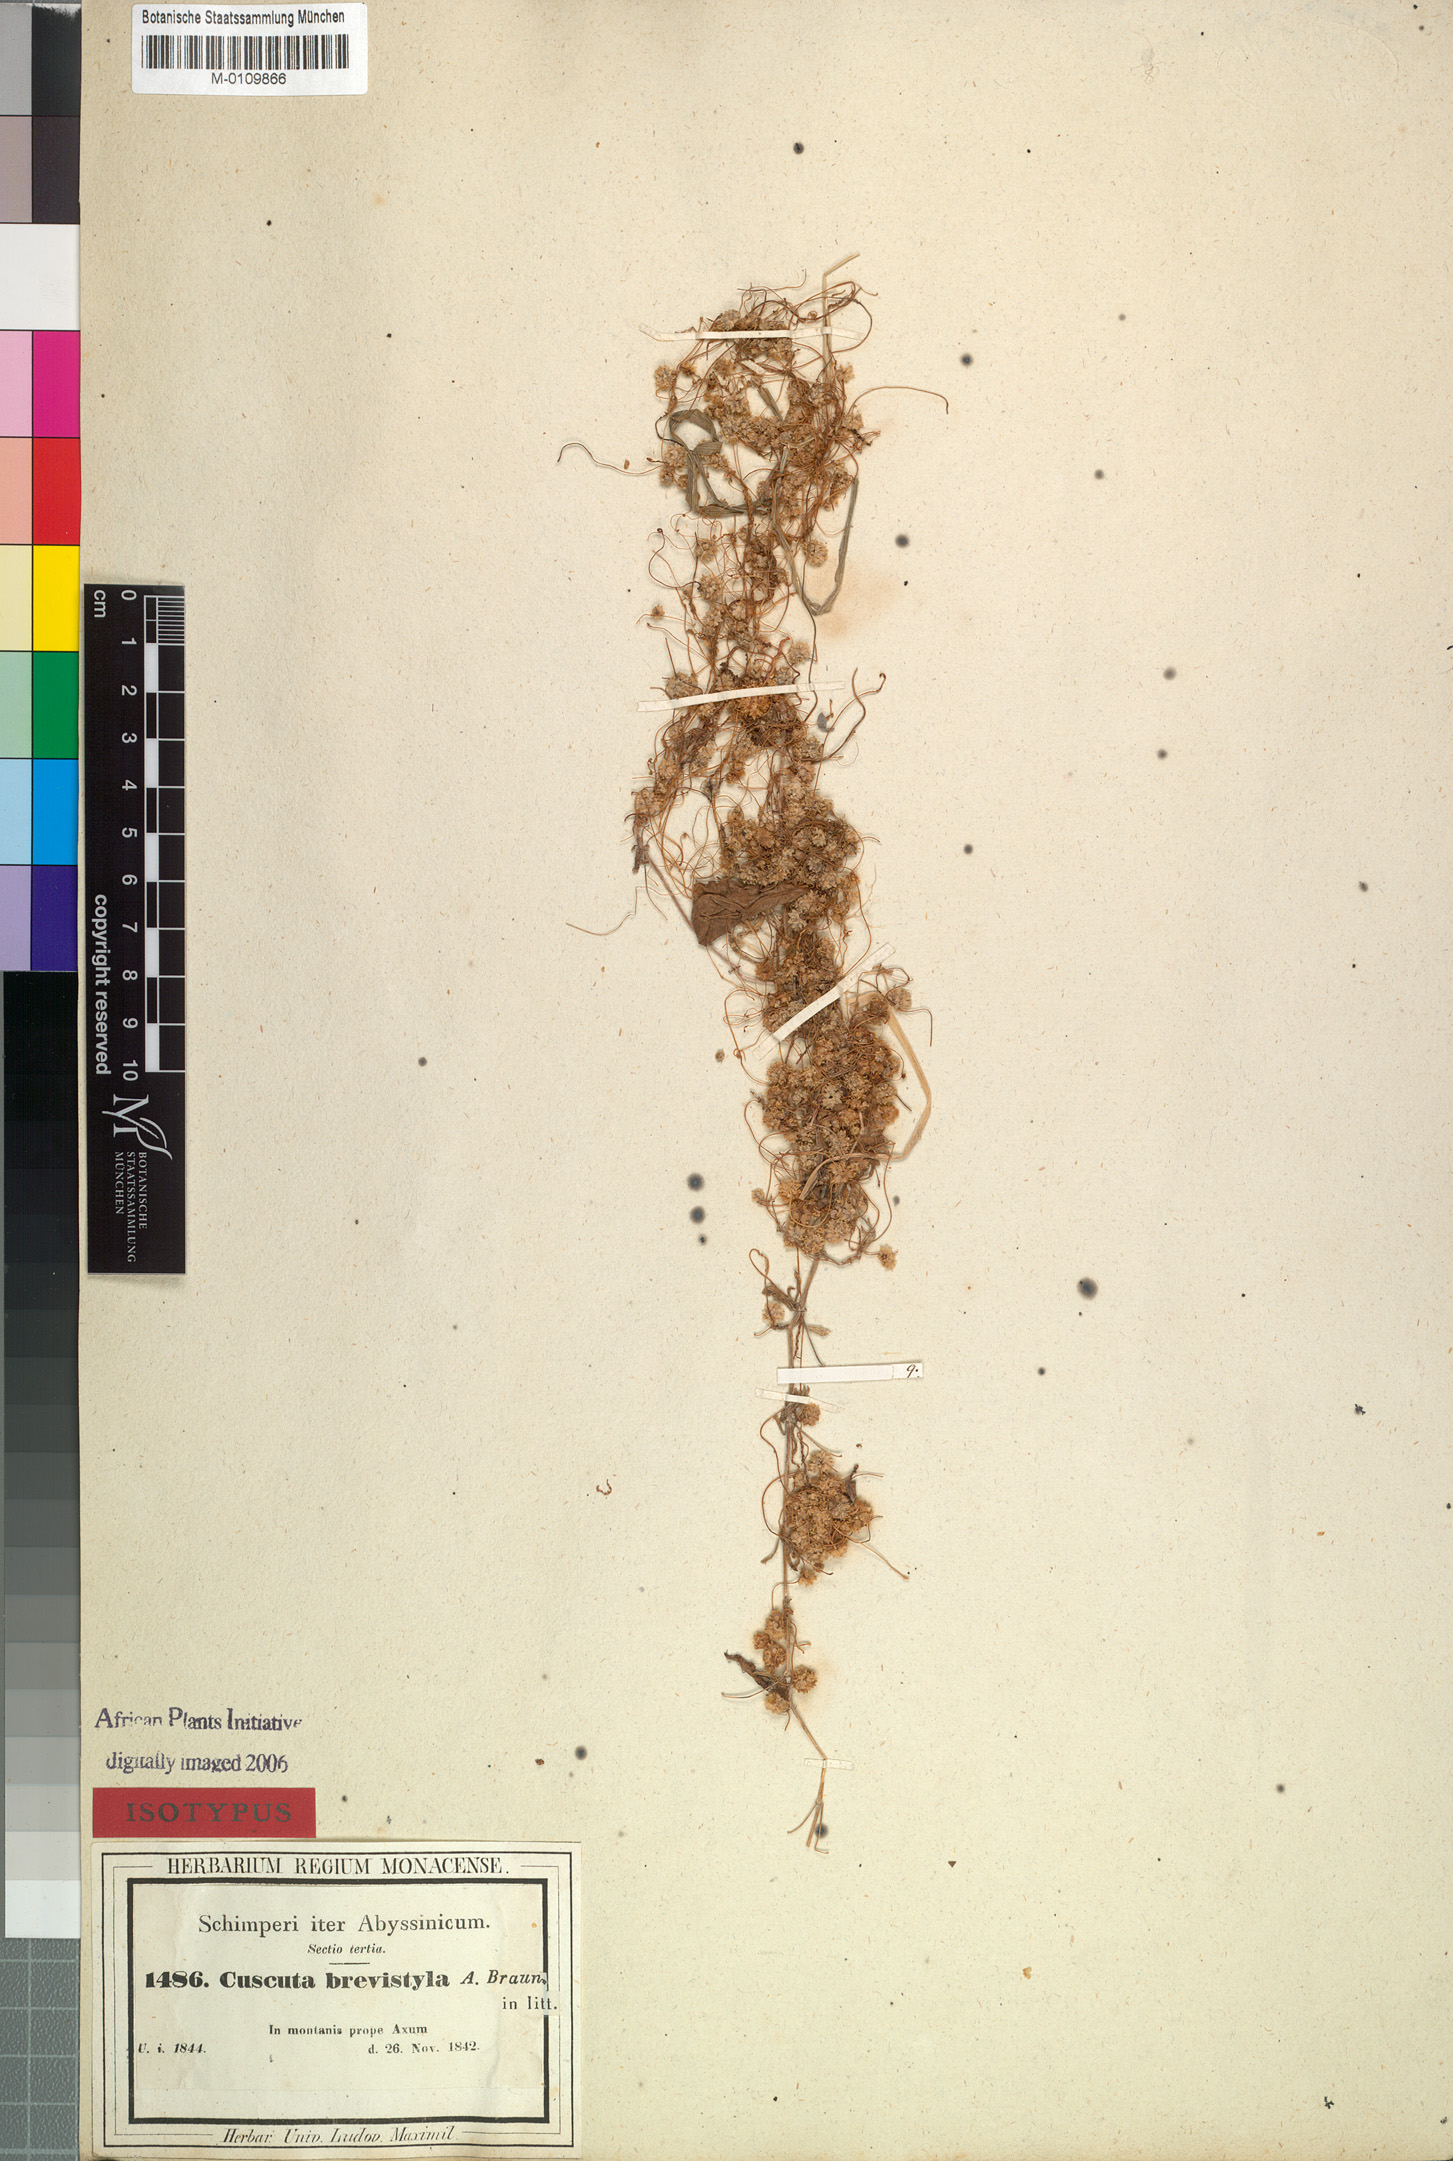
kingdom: Plantae
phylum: Tracheophyta
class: Magnoliopsida
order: Solanales
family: Convolvulaceae
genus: Cuscuta
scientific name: Cuscuta brevistyla
